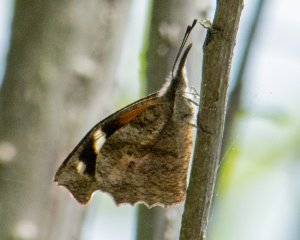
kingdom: Animalia
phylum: Arthropoda
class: Insecta
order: Lepidoptera
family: Nymphalidae
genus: Libytheana
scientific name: Libytheana carinenta
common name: American Snout
